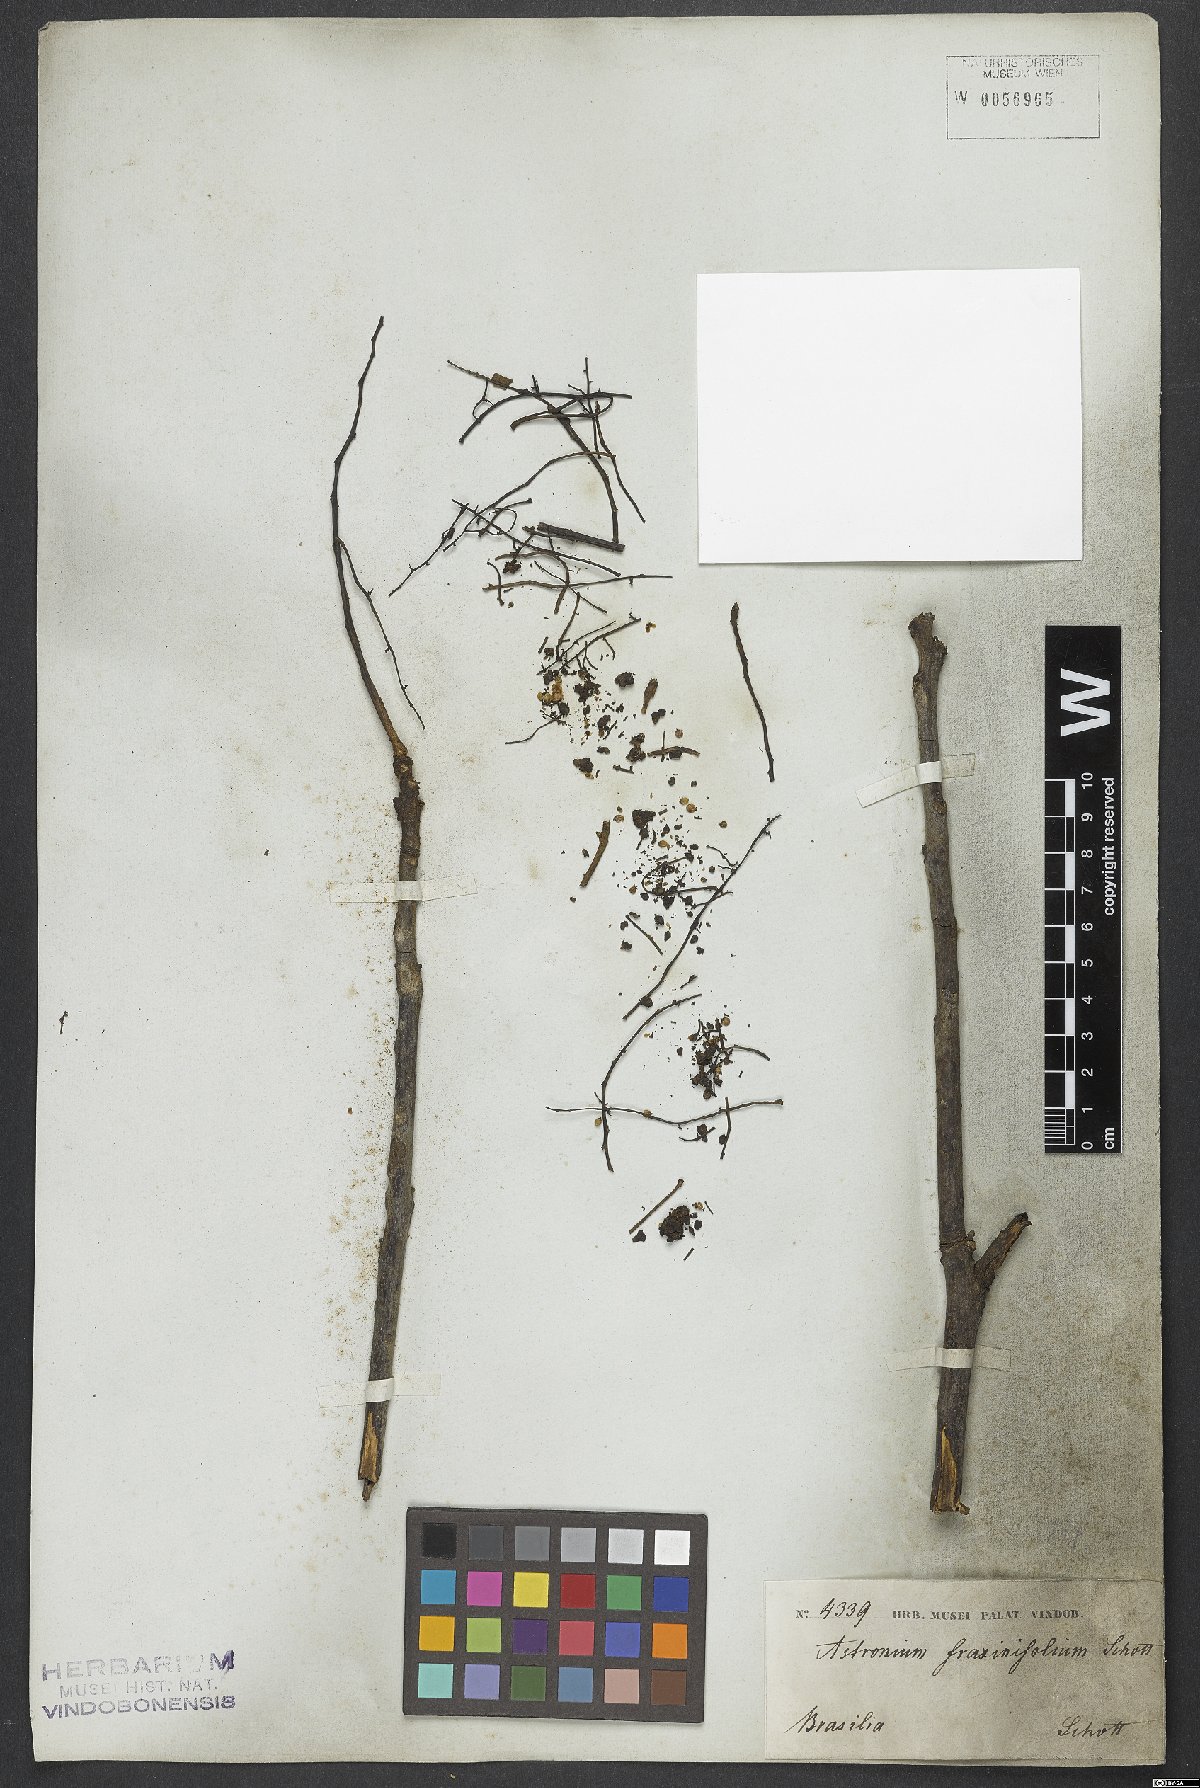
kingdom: Plantae
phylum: Tracheophyta
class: Magnoliopsida
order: Sapindales
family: Anacardiaceae
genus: Astronium
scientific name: Astronium fraxinifolium
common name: Tigerwood
